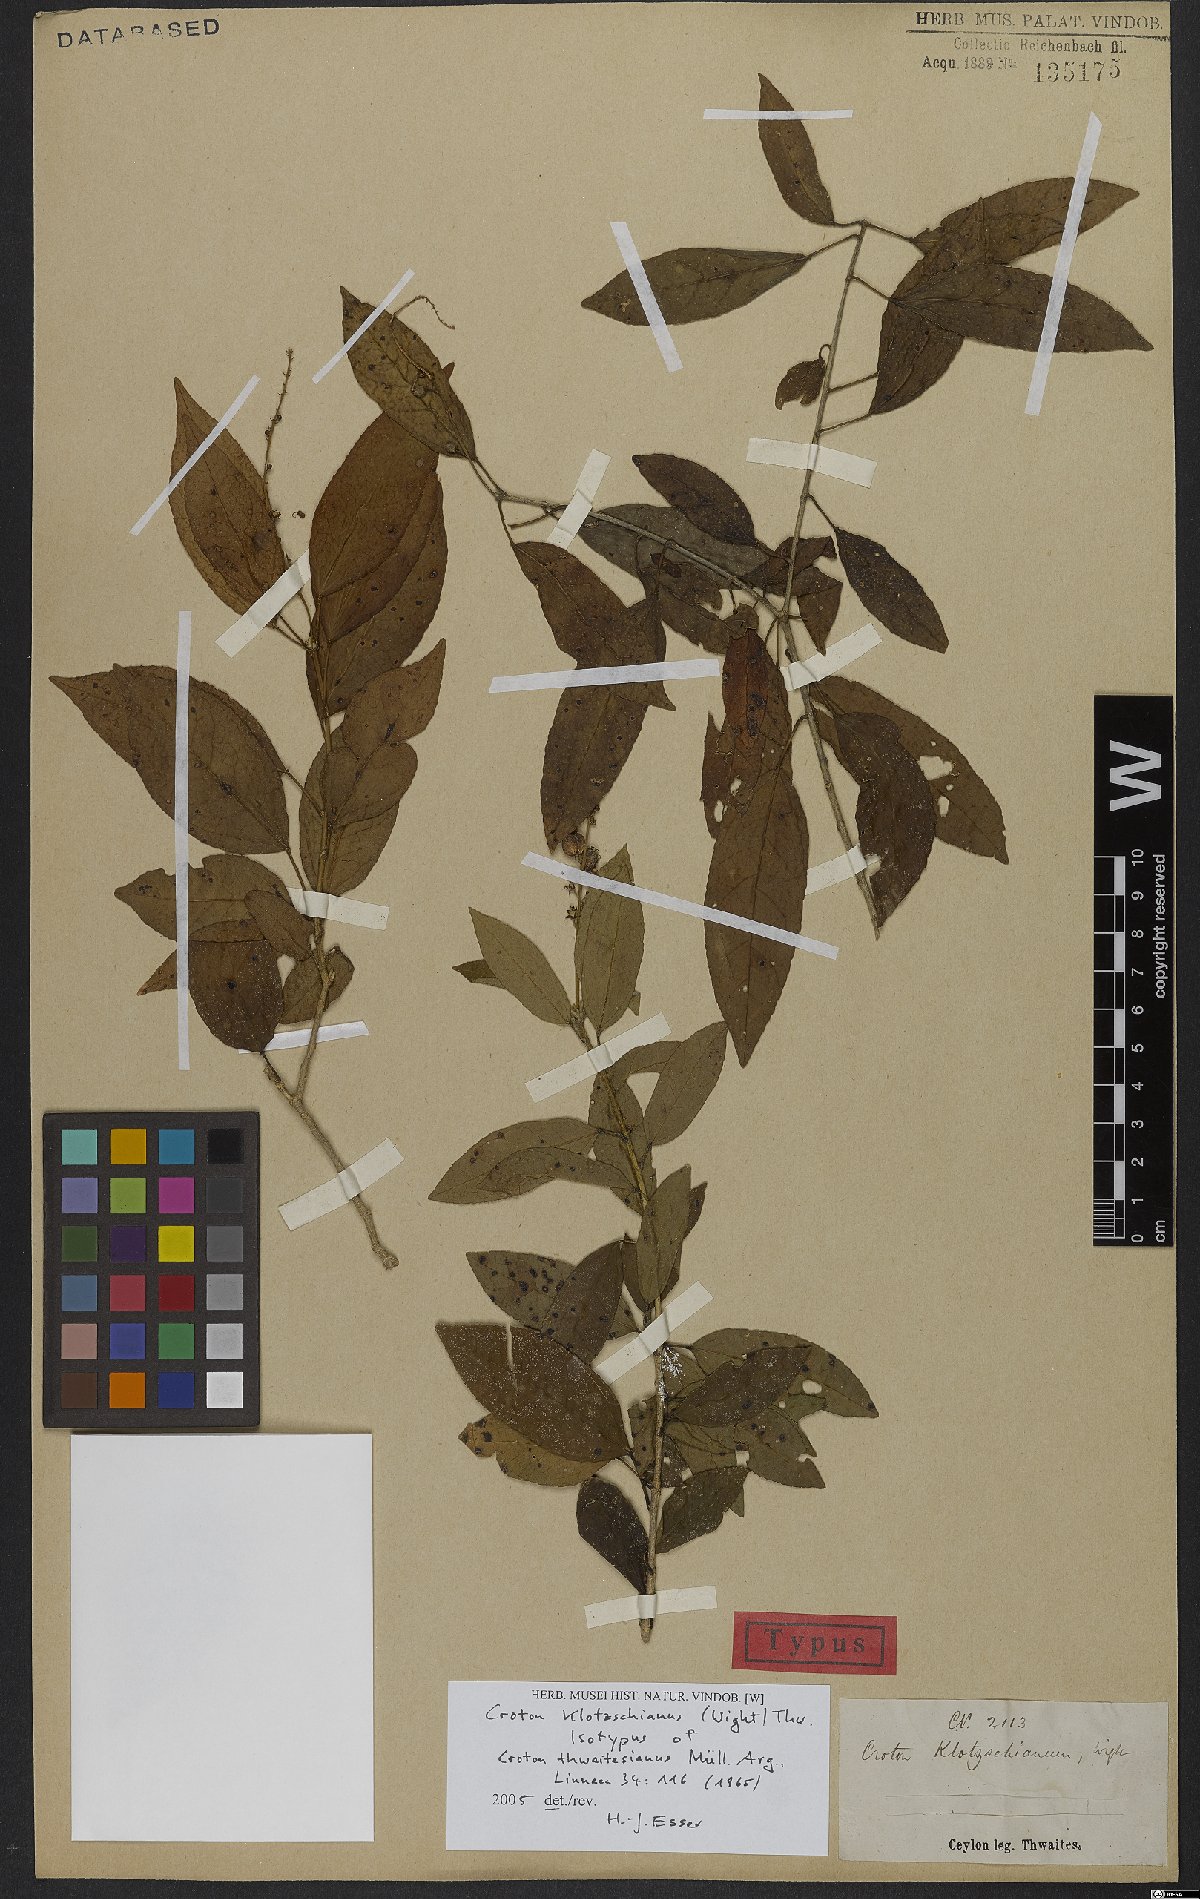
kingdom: Plantae
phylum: Tracheophyta
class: Magnoliopsida
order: Malpighiales
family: Euphorbiaceae
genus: Croton
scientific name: Croton klotzschianus
